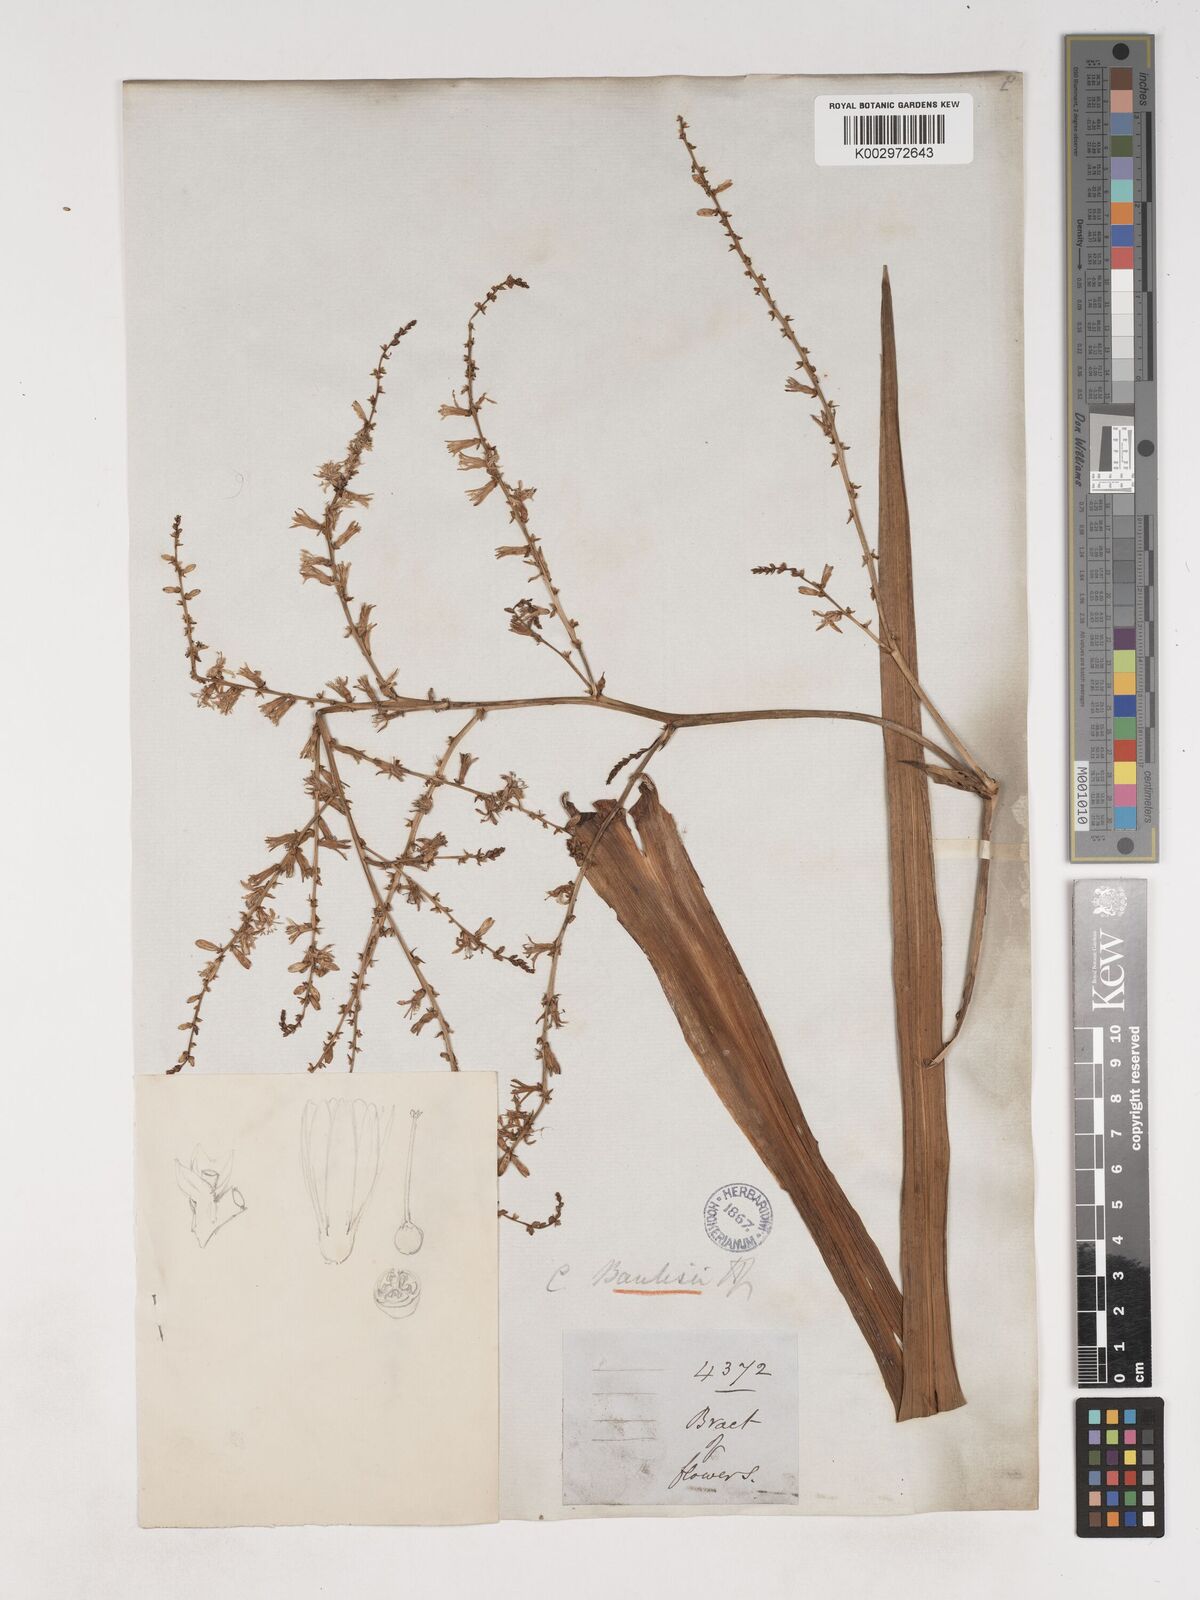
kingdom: Plantae
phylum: Tracheophyta
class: Liliopsida
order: Asparagales
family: Asparagaceae
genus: Cordyline
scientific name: Cordyline banksii
